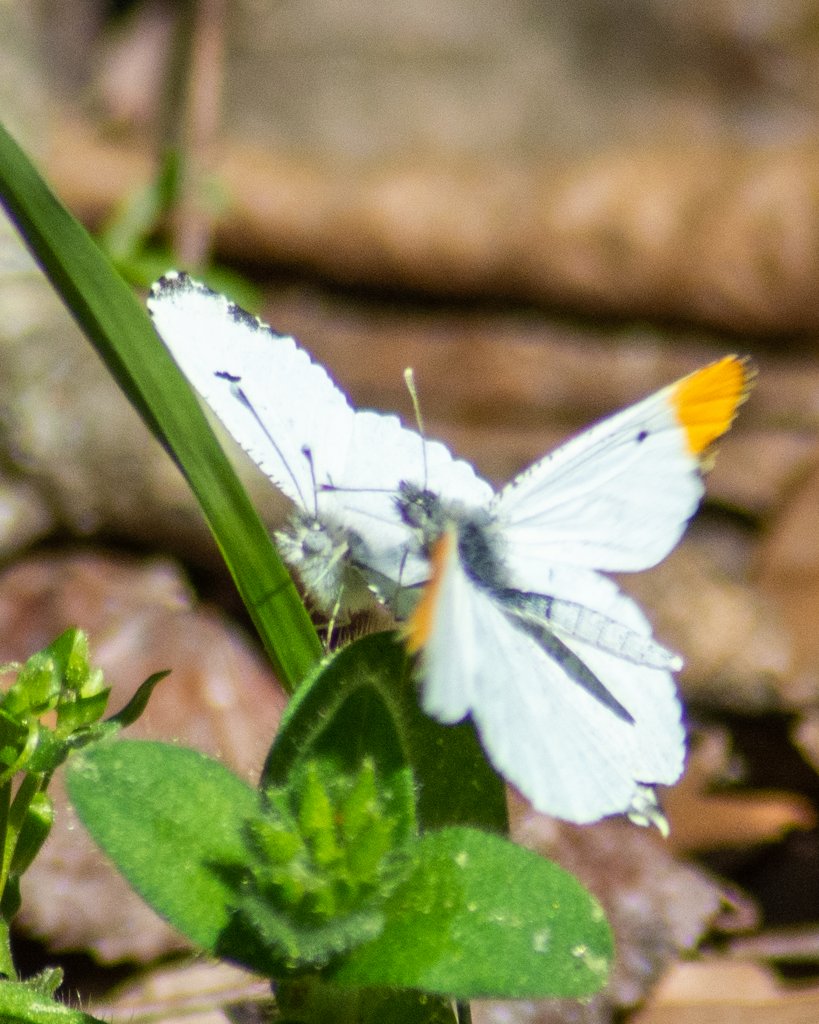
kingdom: Animalia
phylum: Arthropoda
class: Insecta
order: Lepidoptera
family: Pieridae
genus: Anthocharis
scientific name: Anthocharis midea
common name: Falcate Orangetip
